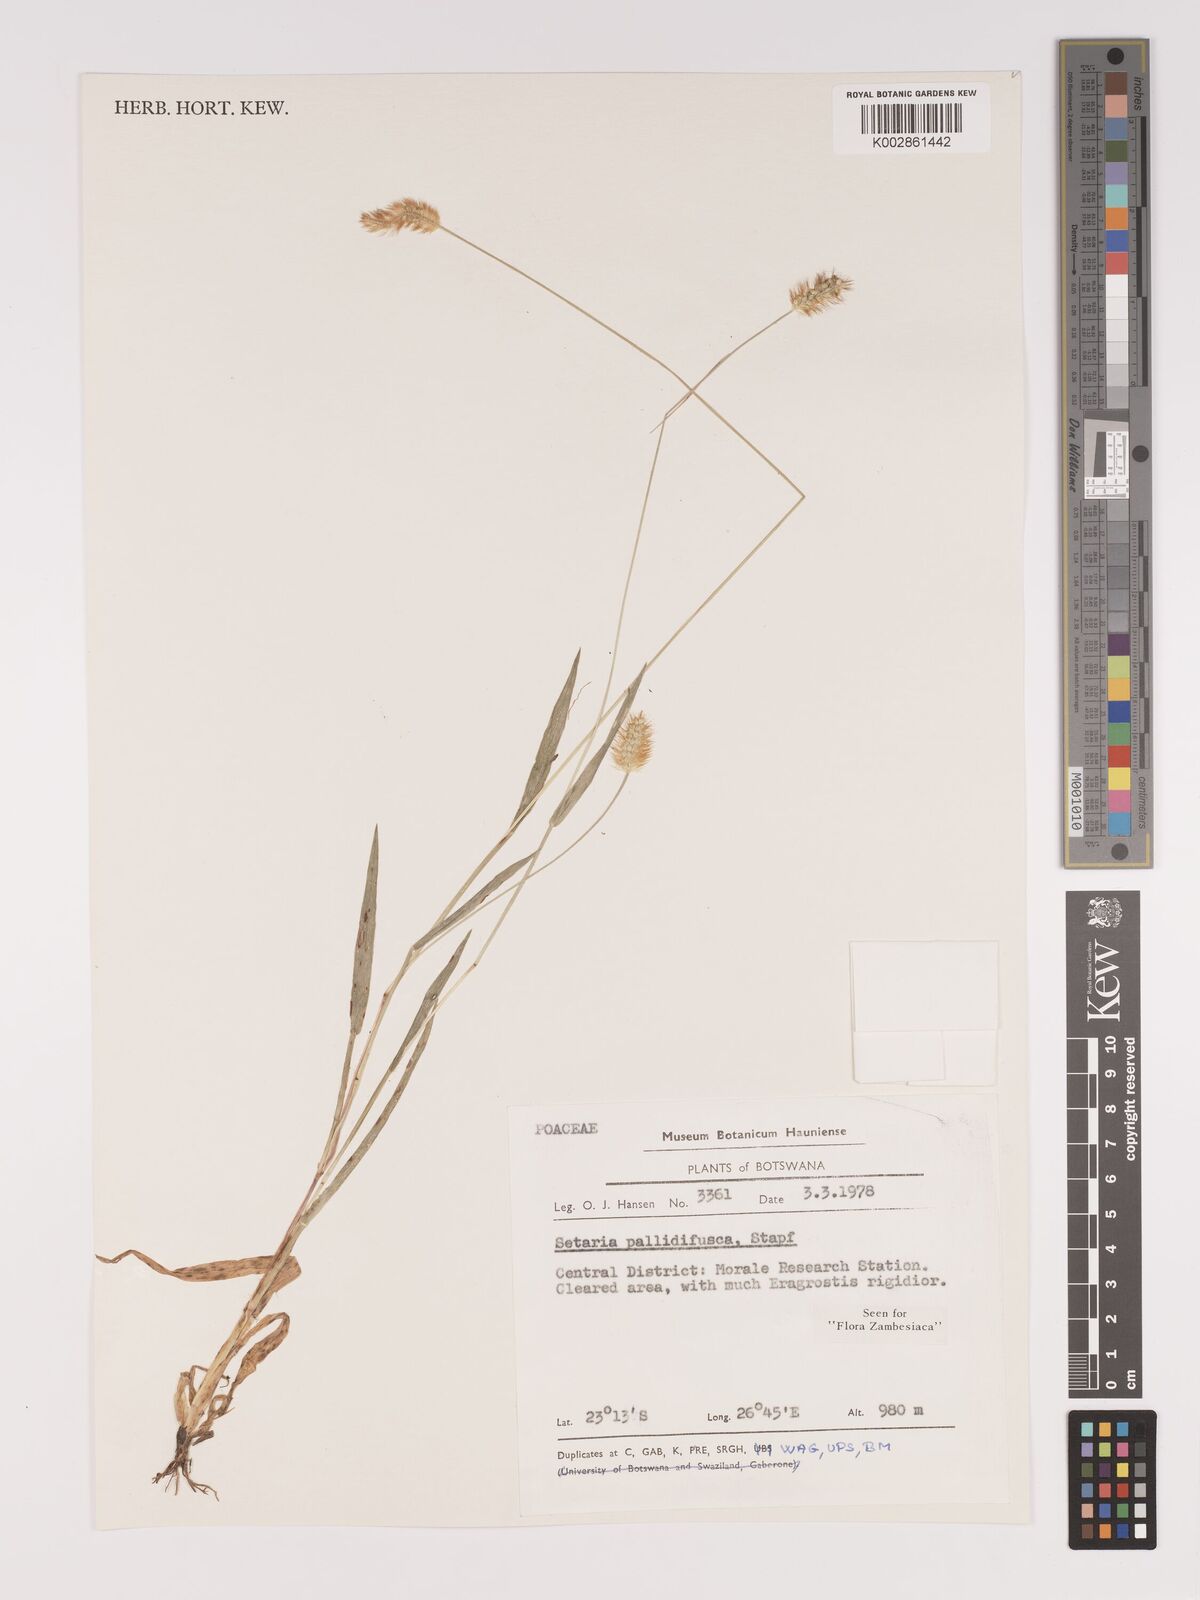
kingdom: Plantae
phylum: Tracheophyta
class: Liliopsida
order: Poales
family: Poaceae
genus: Setaria
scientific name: Setaria pumila
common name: Yellow bristle-grass
